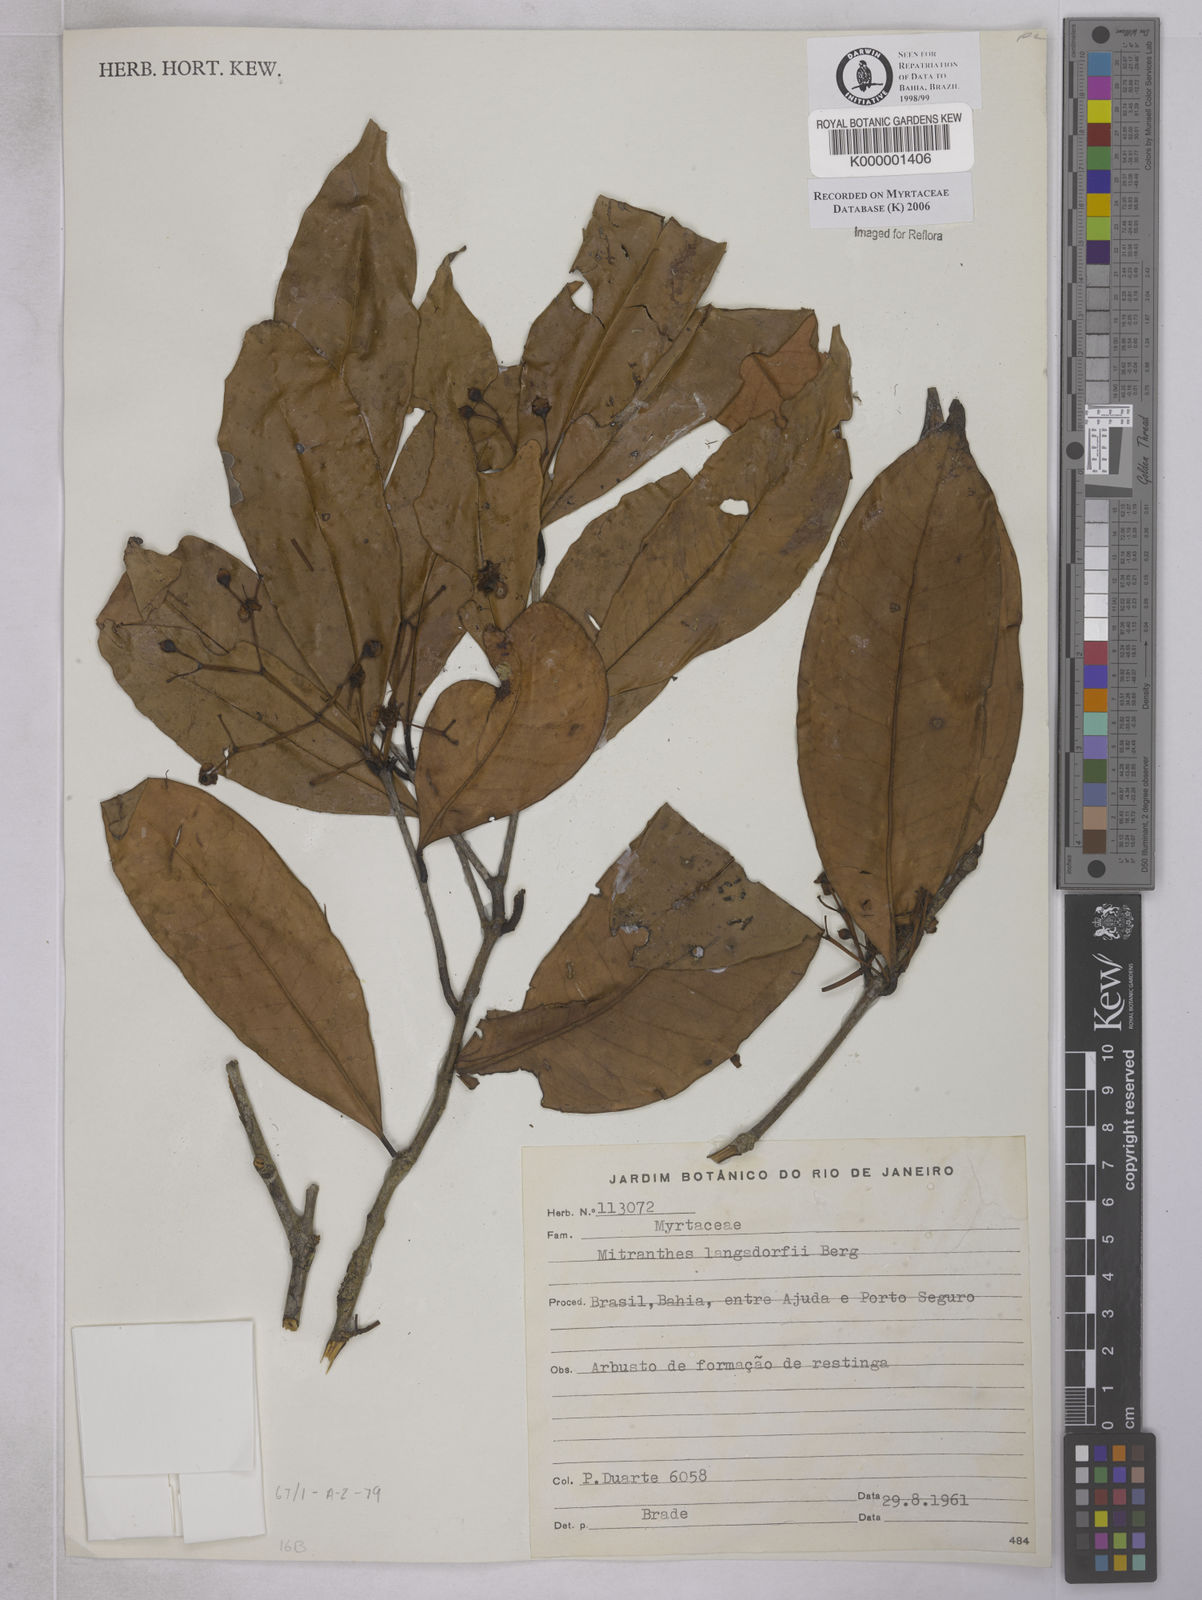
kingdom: Plantae
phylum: Tracheophyta
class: Magnoliopsida
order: Myrtales
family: Myrtaceae
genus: Calycorectes
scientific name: Calycorectes teixeireanus
